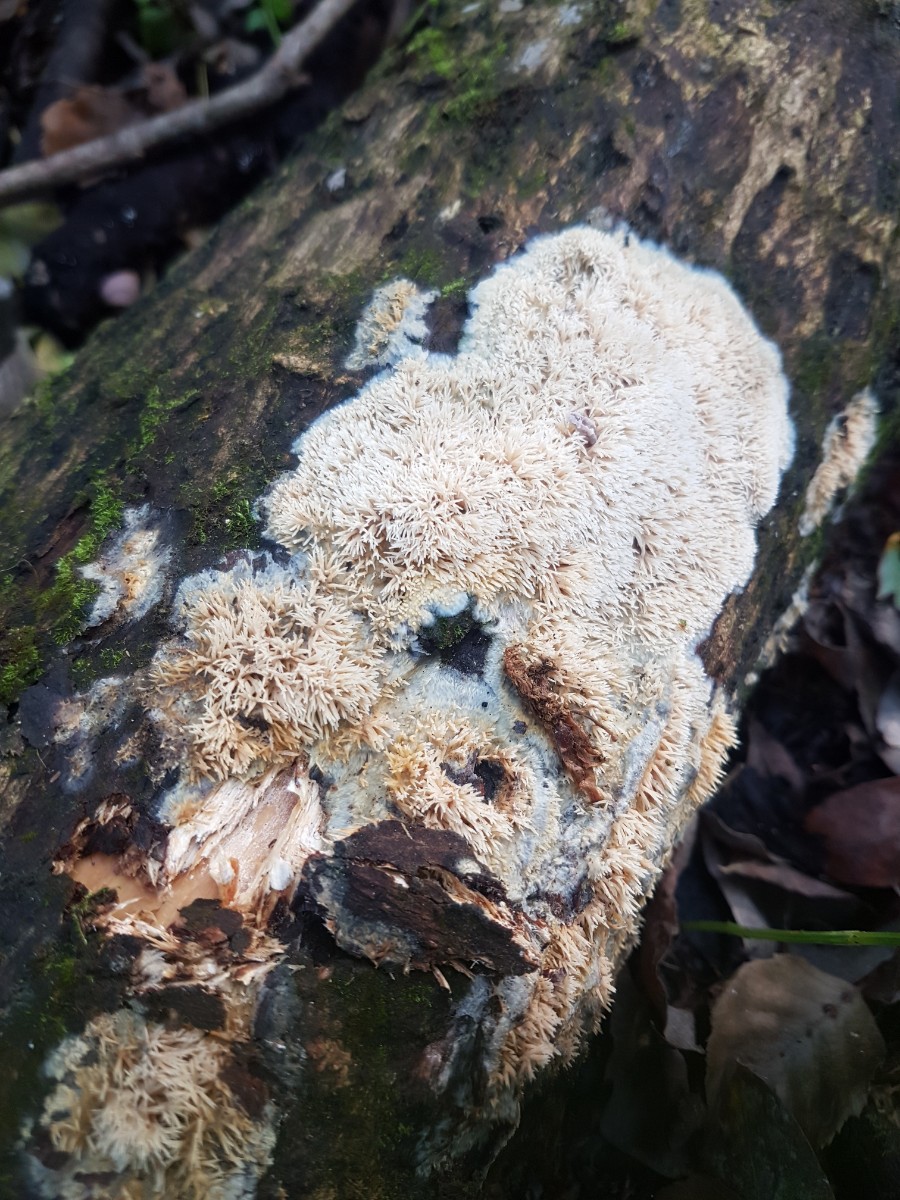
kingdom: Fungi
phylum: Basidiomycota
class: Agaricomycetes
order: Polyporales
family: Meruliaceae
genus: Mycoaciella
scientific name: Mycoaciella bispora
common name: stalaktit-vokspig
